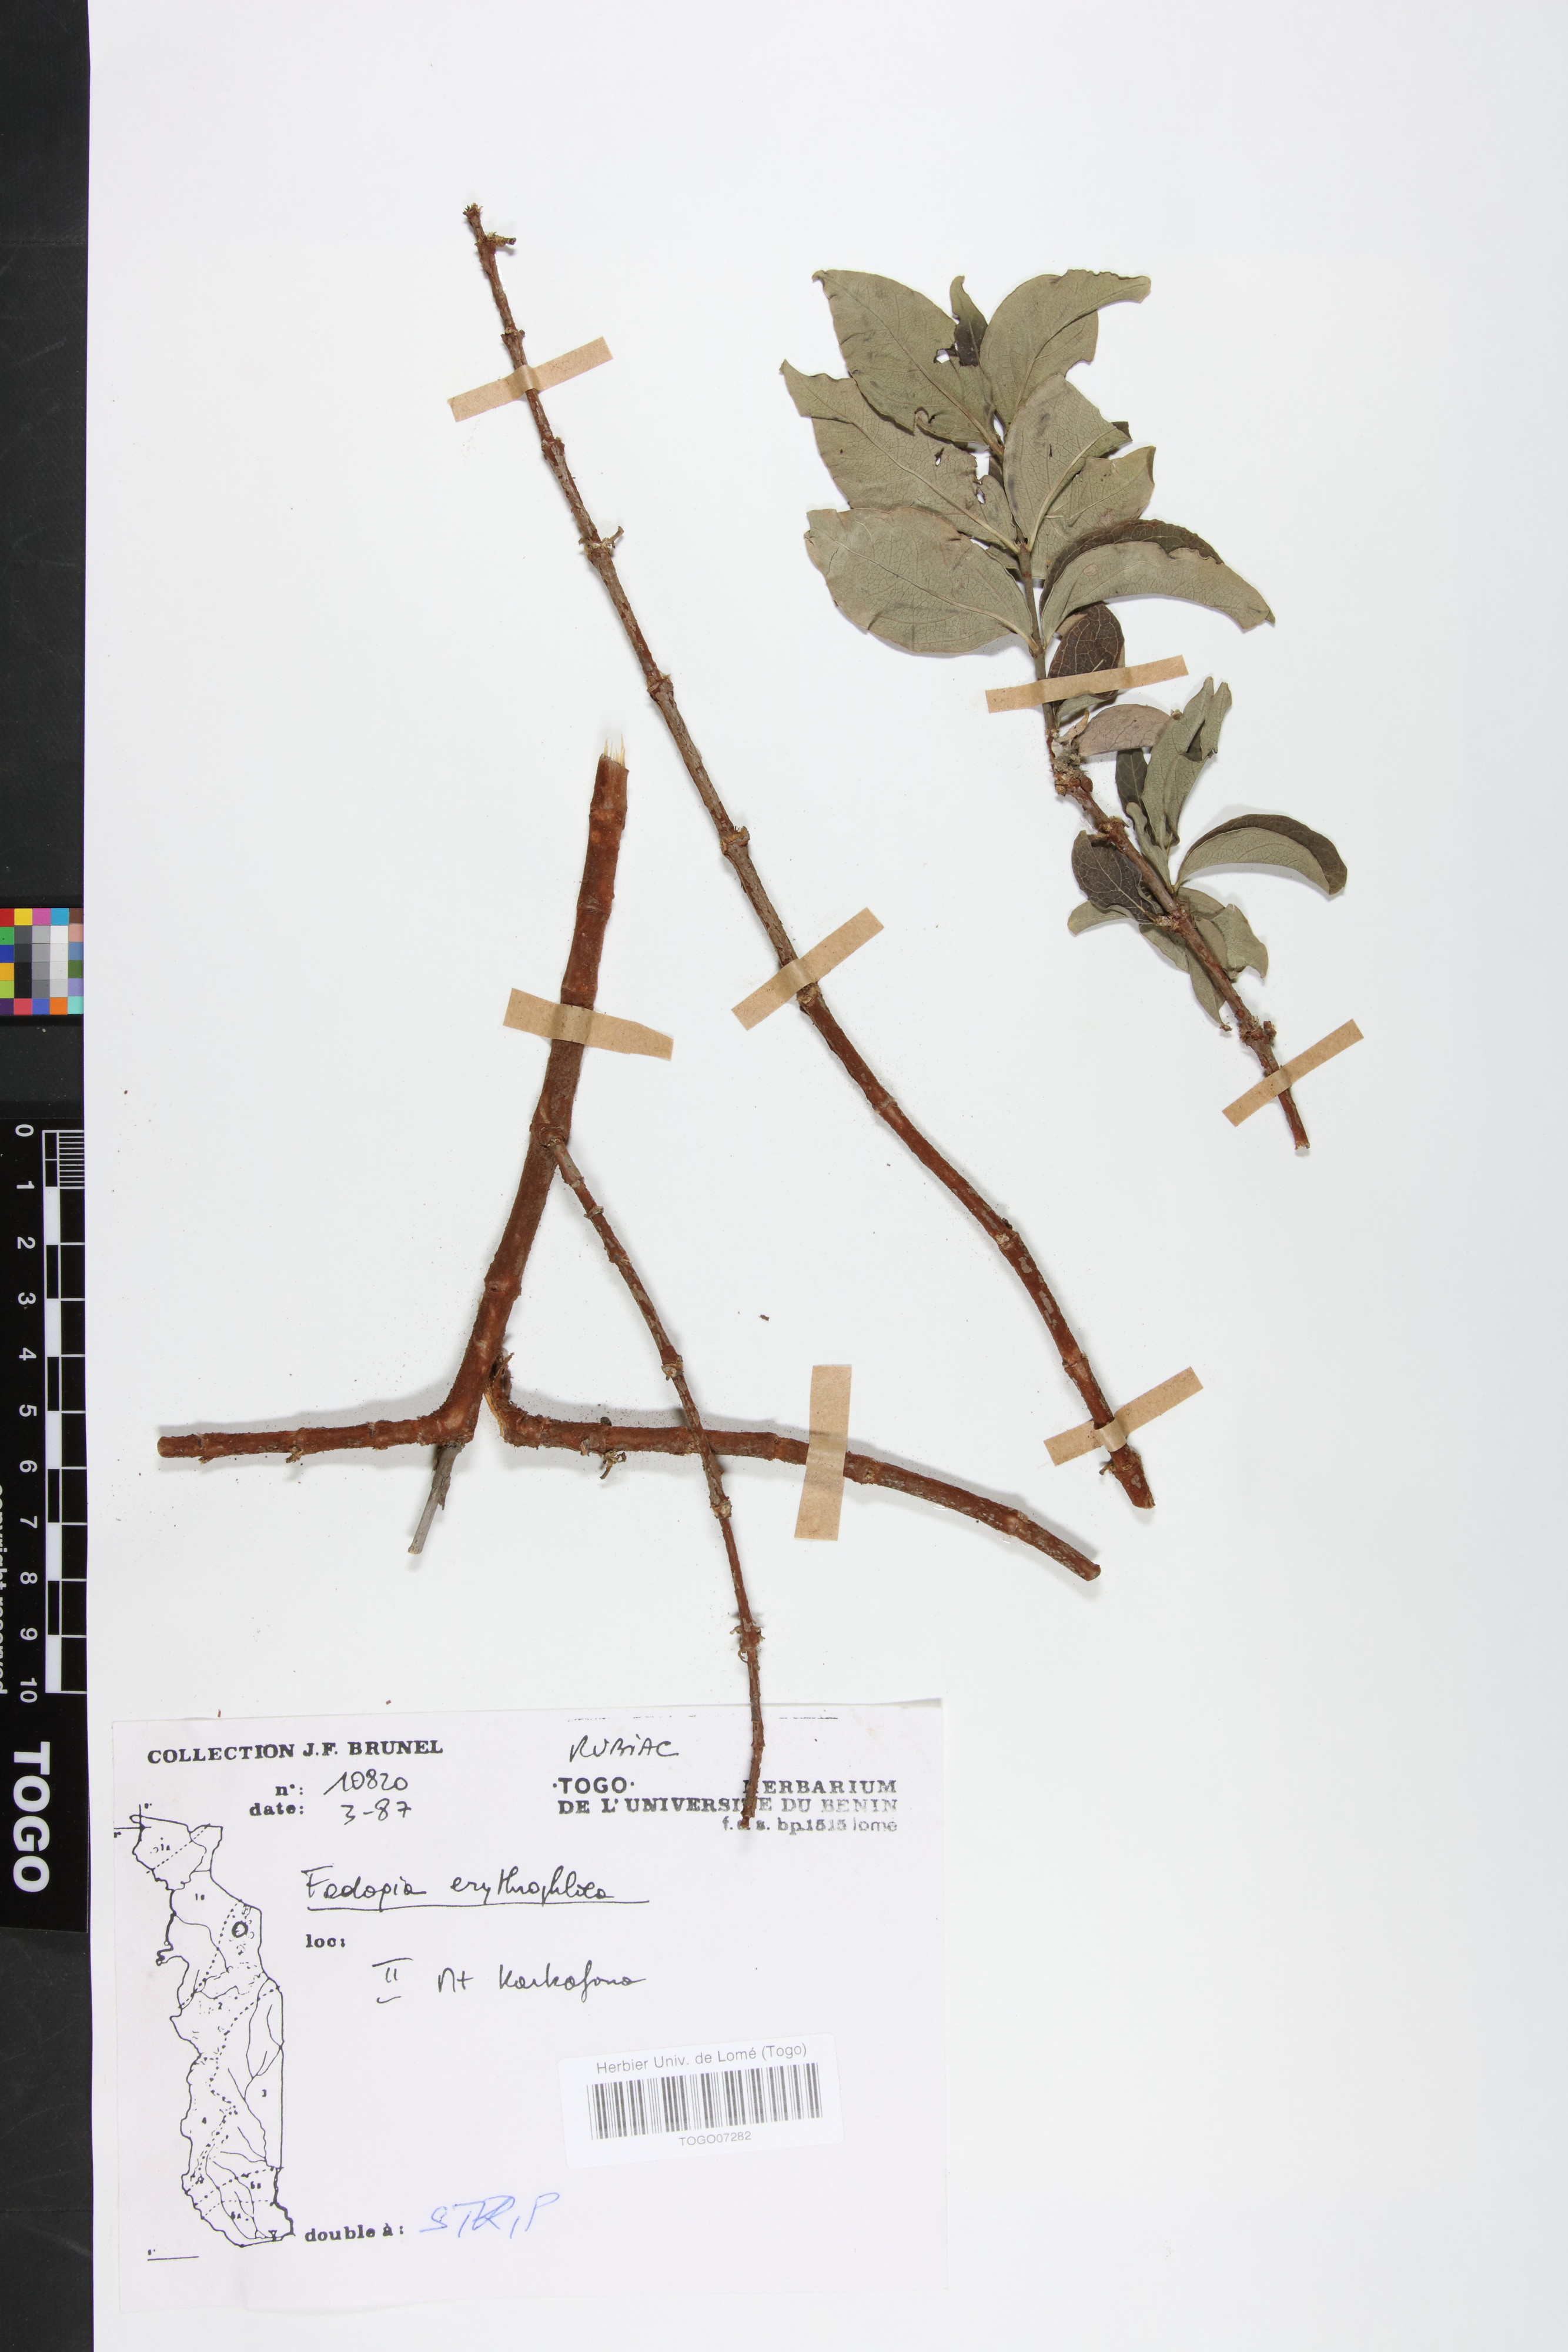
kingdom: Plantae
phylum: Tracheophyta
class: Magnoliopsida
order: Gentianales
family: Rubiaceae
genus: Fadogia
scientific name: Fadogia erythrophloea
